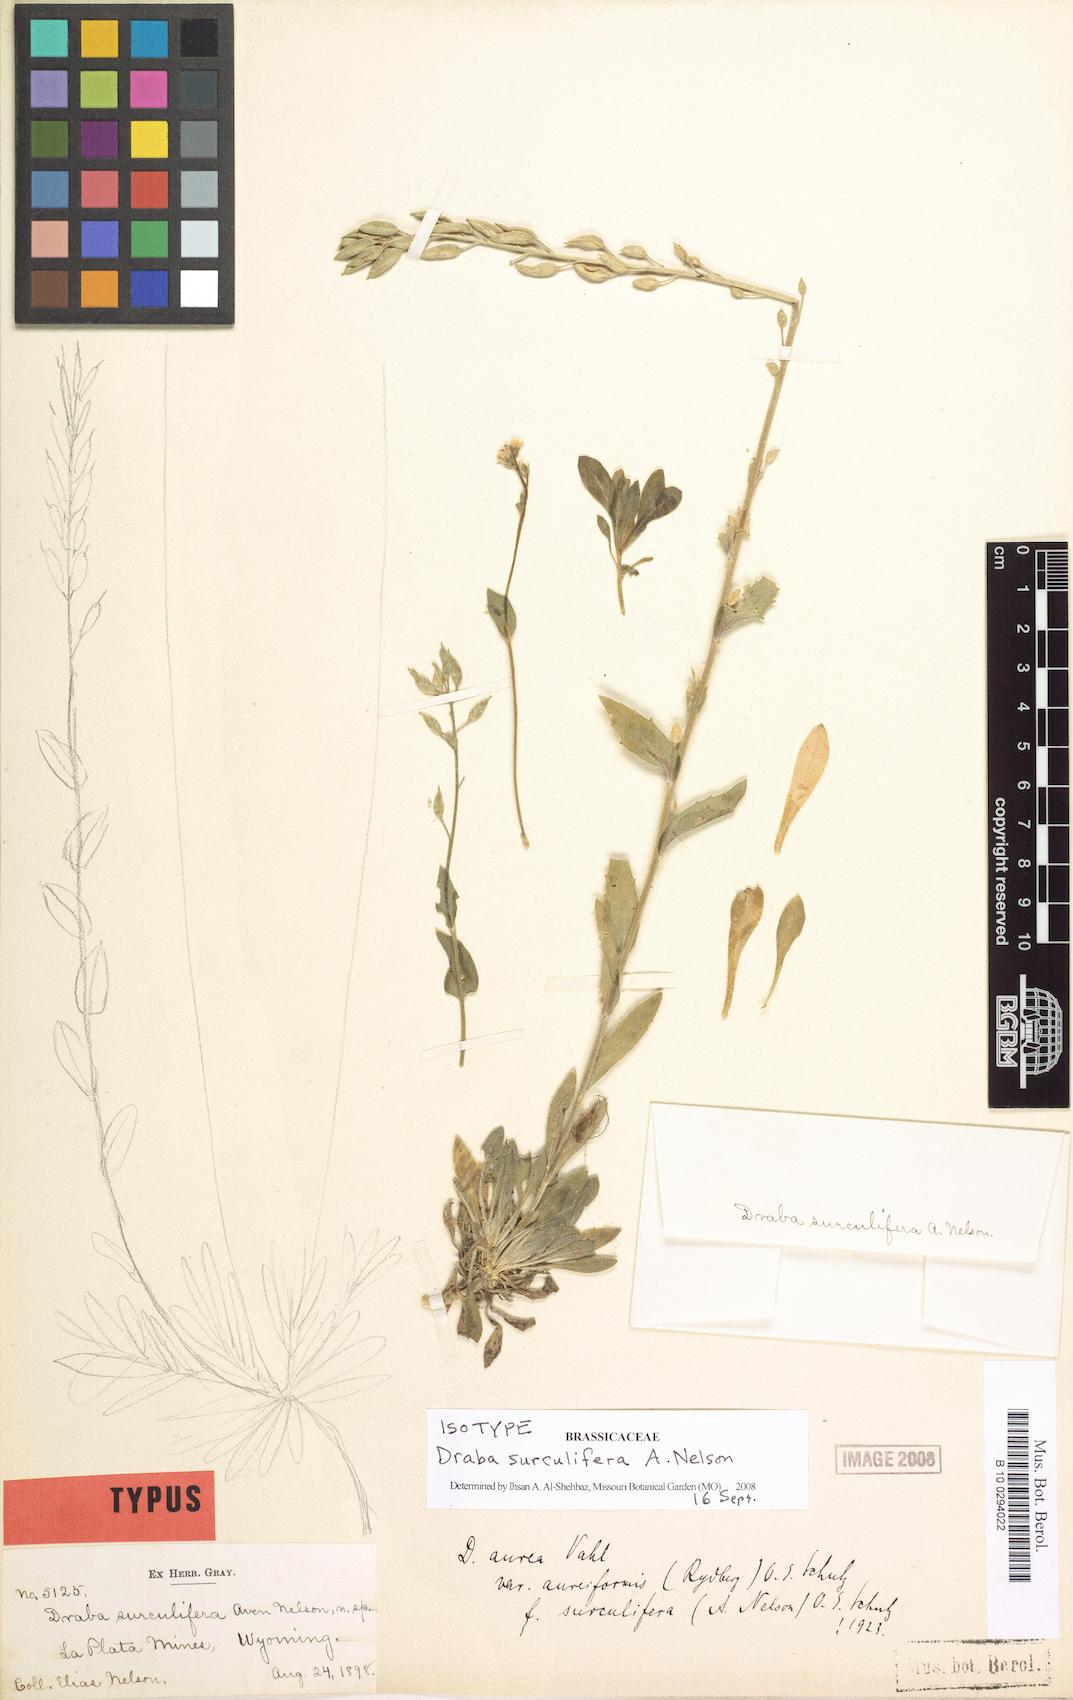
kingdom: Plantae
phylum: Tracheophyta
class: Magnoliopsida
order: Brassicales
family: Brassicaceae
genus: Draba
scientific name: Draba aurea
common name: Golden draba
